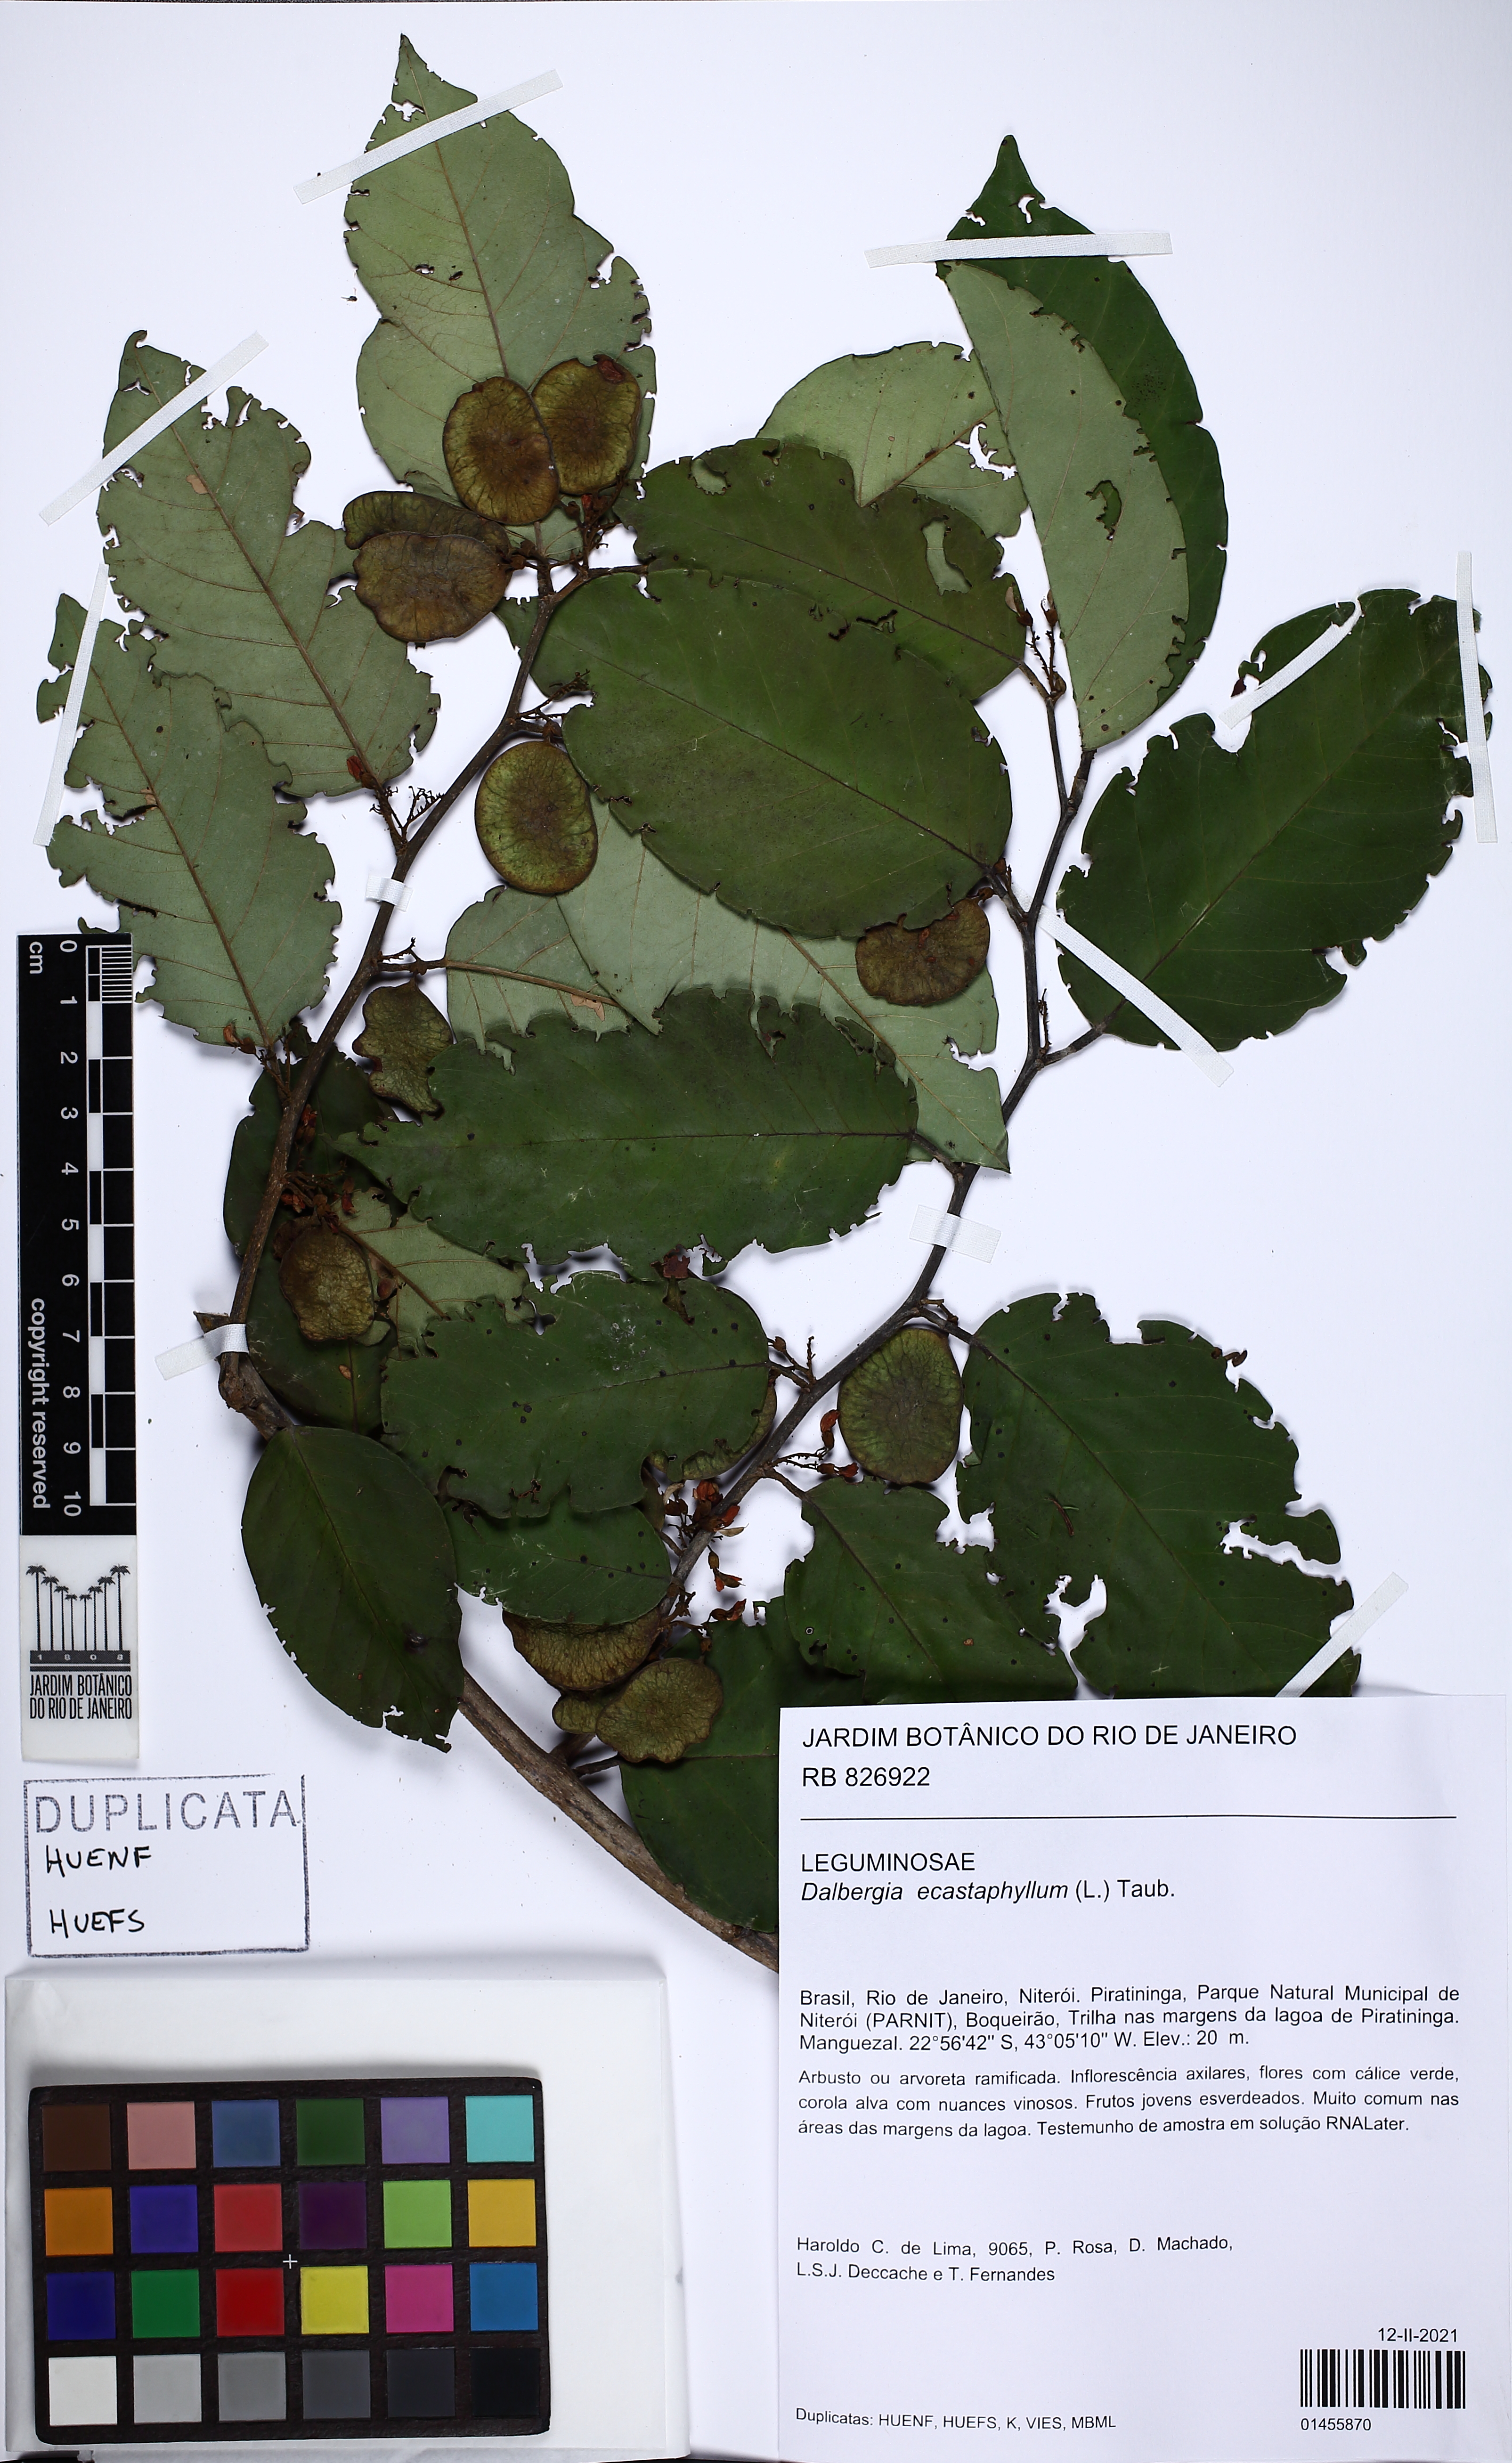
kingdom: Plantae
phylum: Tracheophyta
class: Magnoliopsida
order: Fabales
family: Fabaceae
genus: Dalbergia
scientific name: Dalbergia ecastaphyllum
